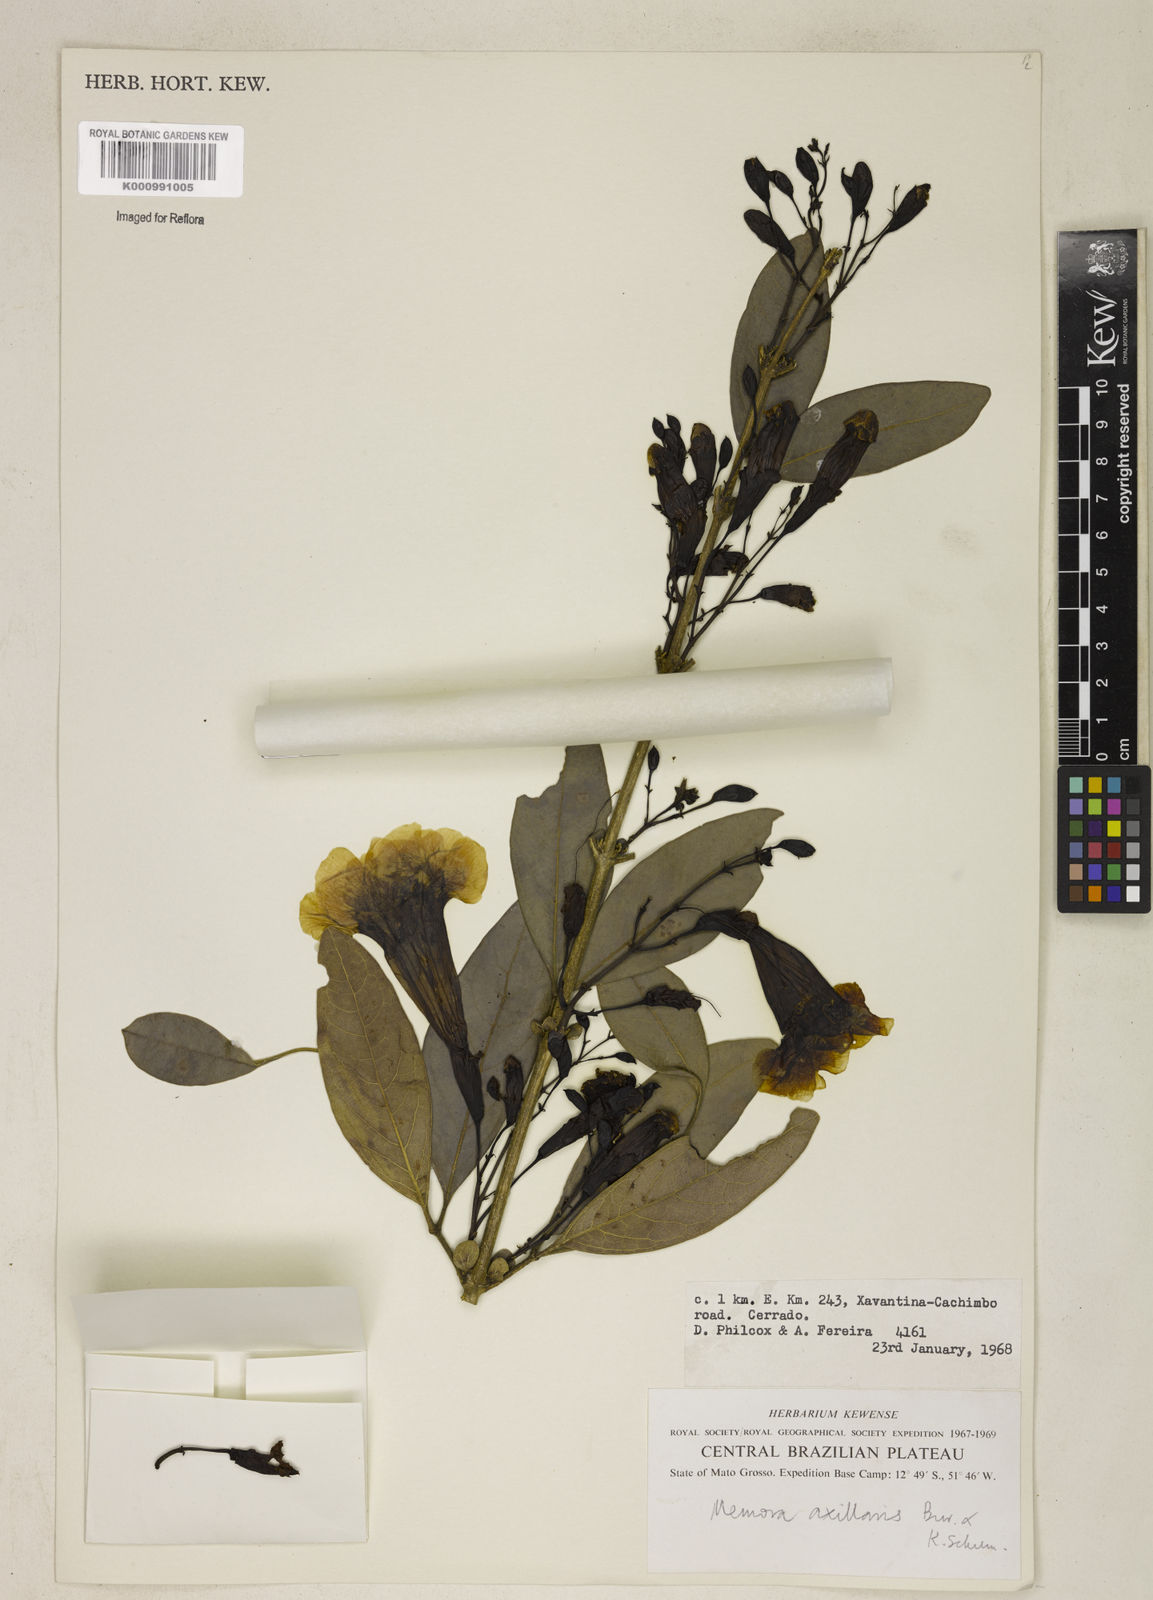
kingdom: Plantae
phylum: Tracheophyta
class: Magnoliopsida
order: Lamiales
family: Bignoniaceae
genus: Adenocalymma
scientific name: Adenocalymma axillare
